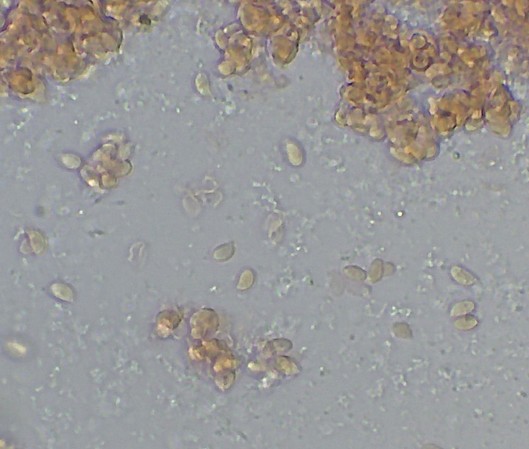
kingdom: Fungi
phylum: Basidiomycota
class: Agaricomycetes
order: Agaricales
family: Physalacriaceae
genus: Strobilurus
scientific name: Strobilurus esculentus
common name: gran-koglehat
